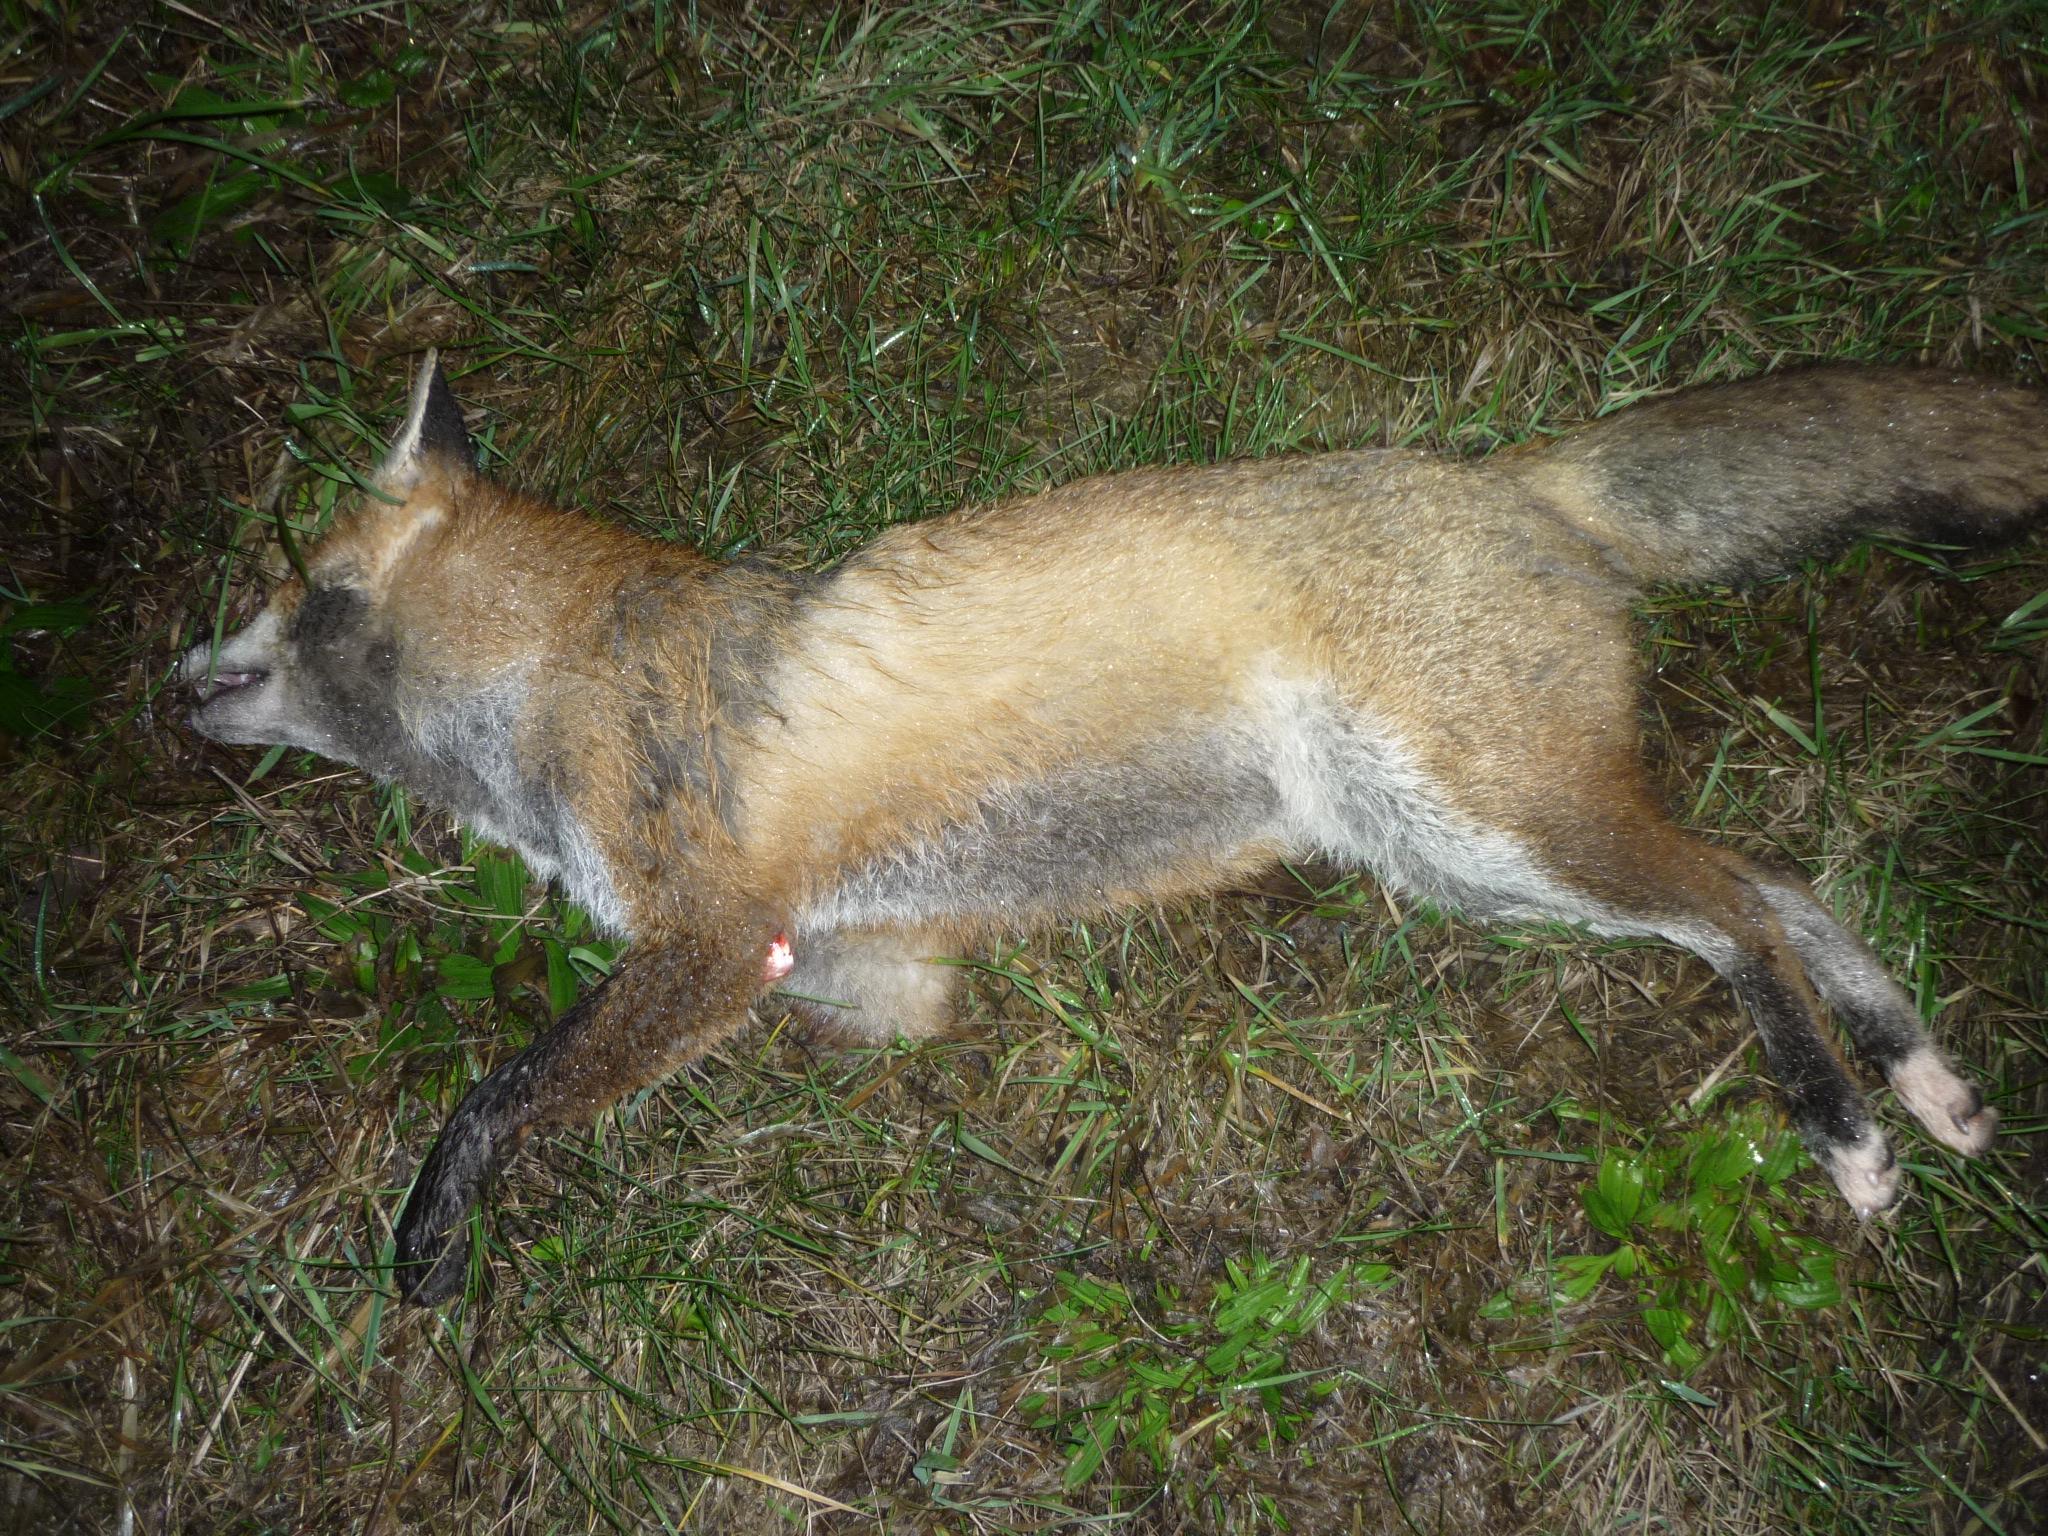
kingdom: Animalia
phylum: Chordata
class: Mammalia
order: Carnivora
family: Canidae
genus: Vulpes
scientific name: Vulpes vulpes
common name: Red fox
